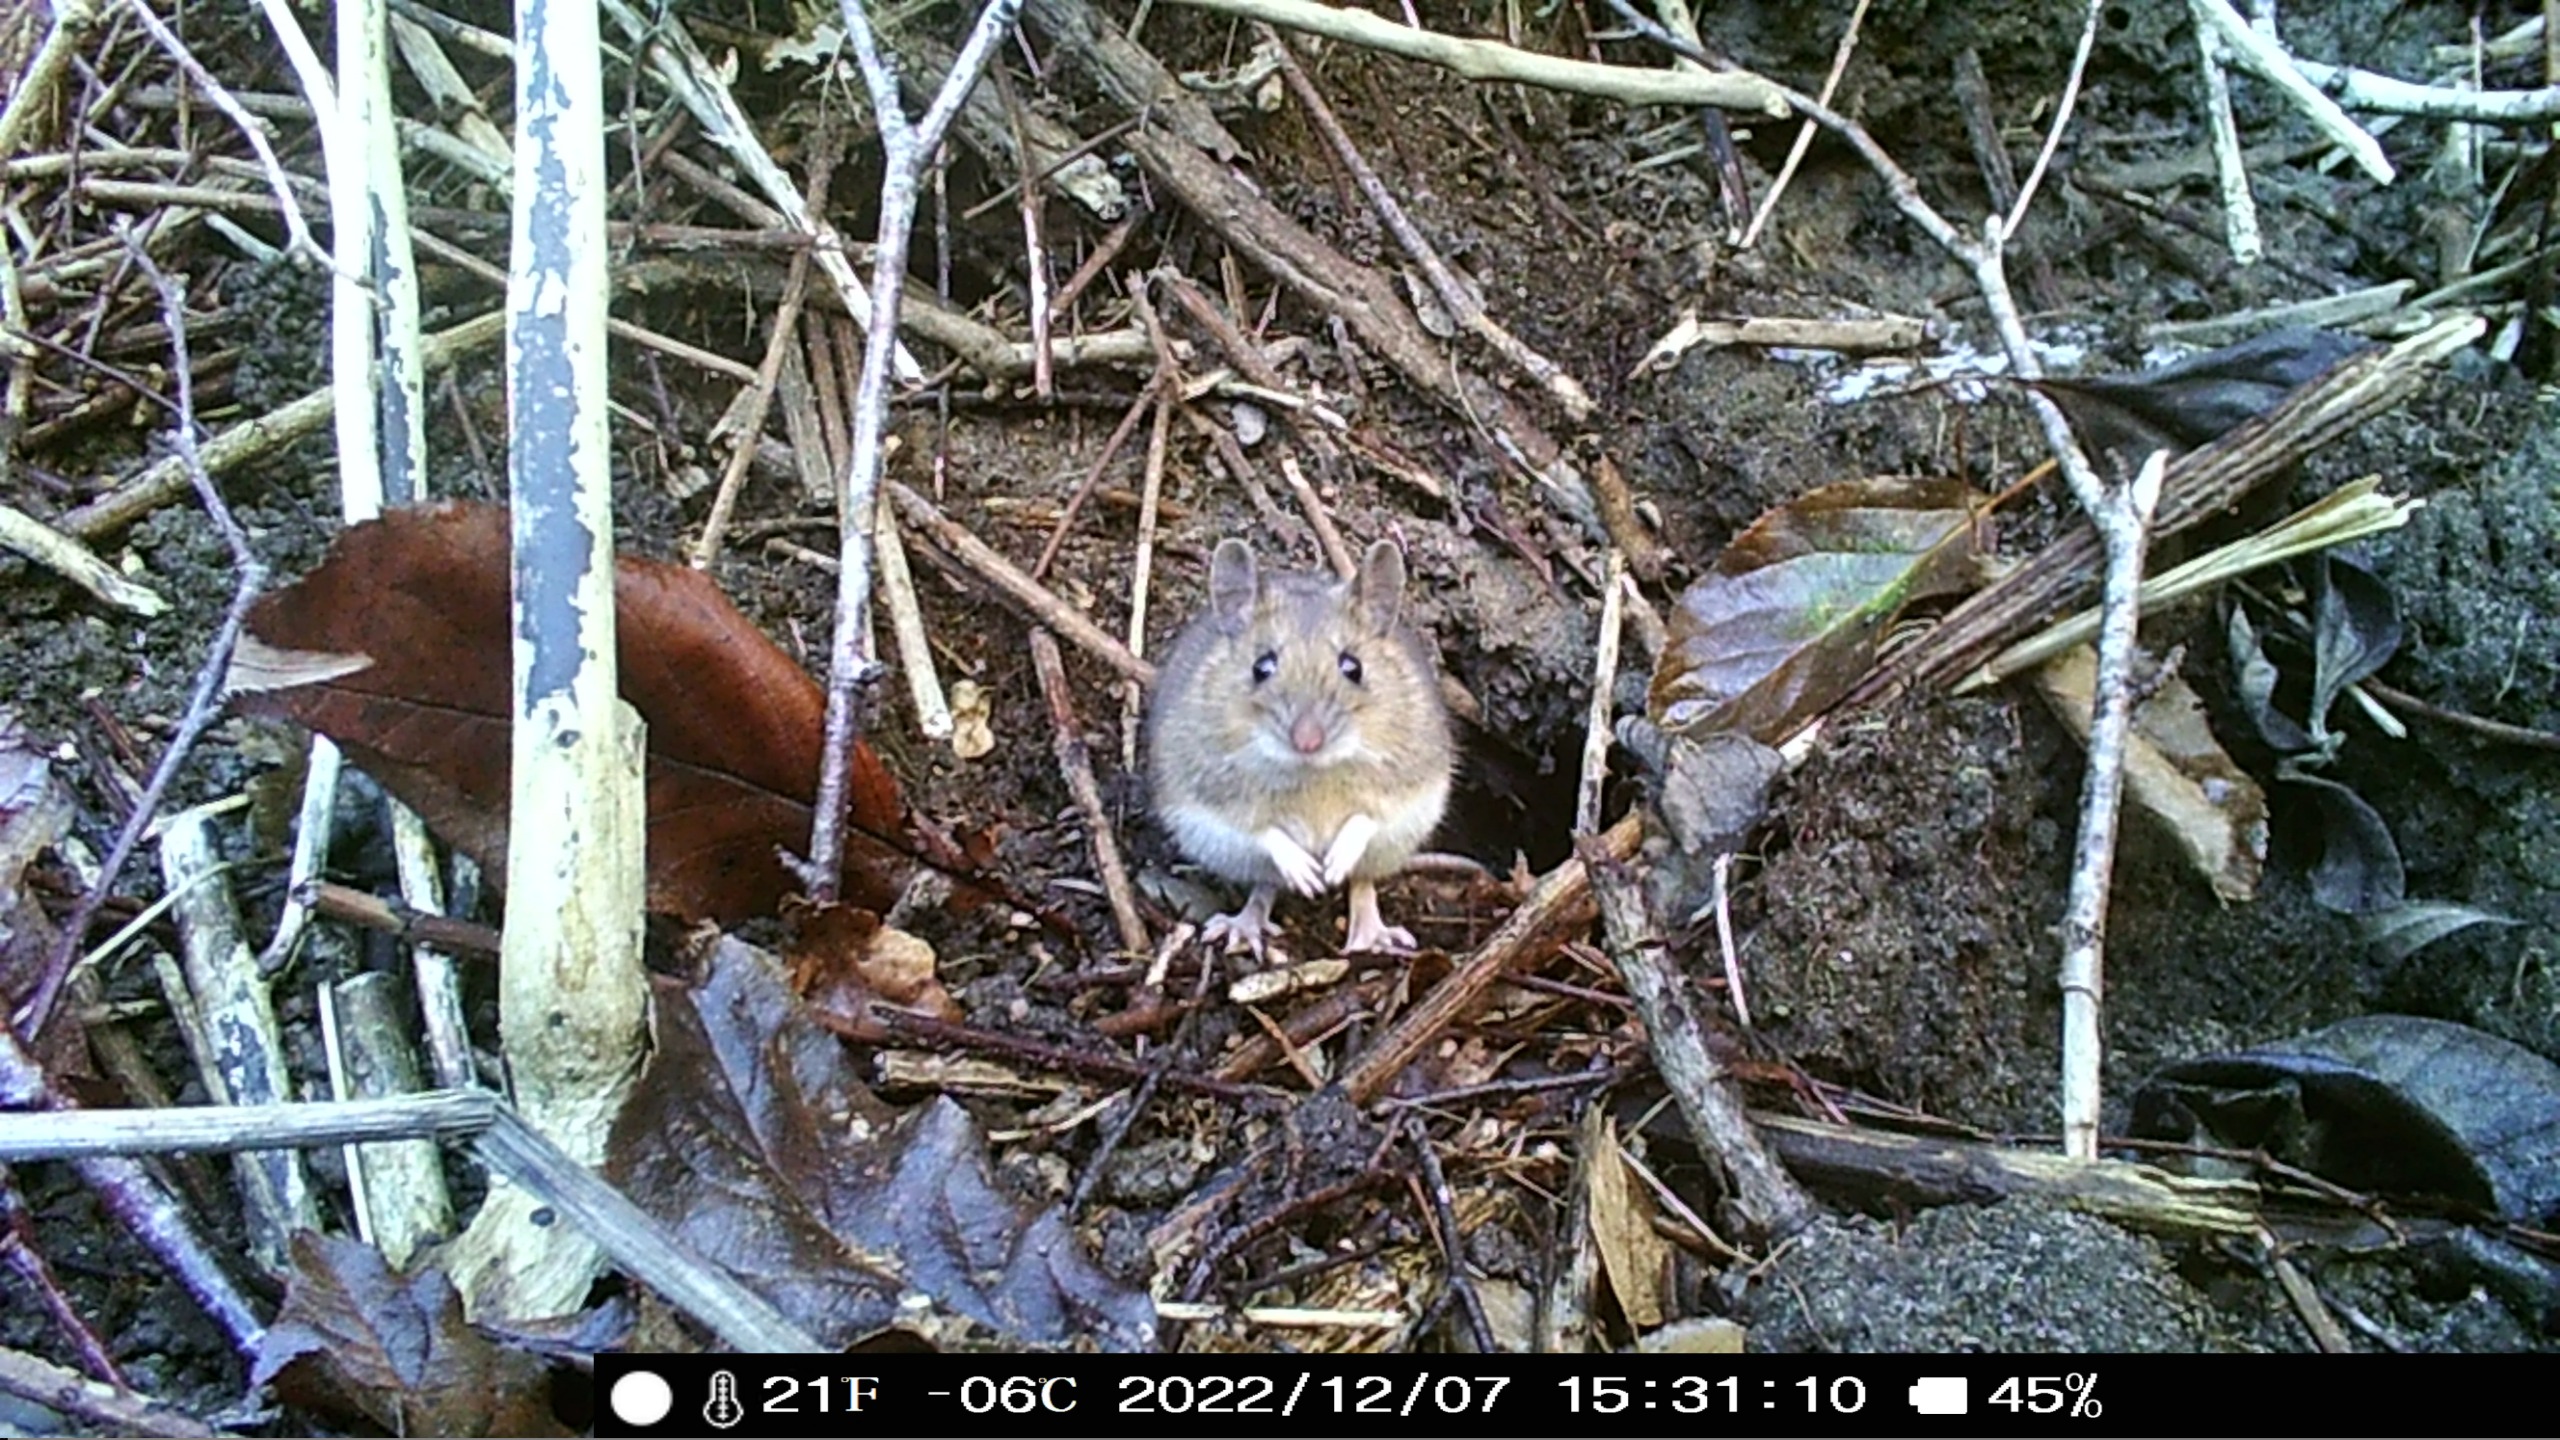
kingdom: Animalia
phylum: Chordata
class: Mammalia
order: Rodentia
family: Muridae
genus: Apodemus
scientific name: Apodemus flavicollis
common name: Halsbåndmus
